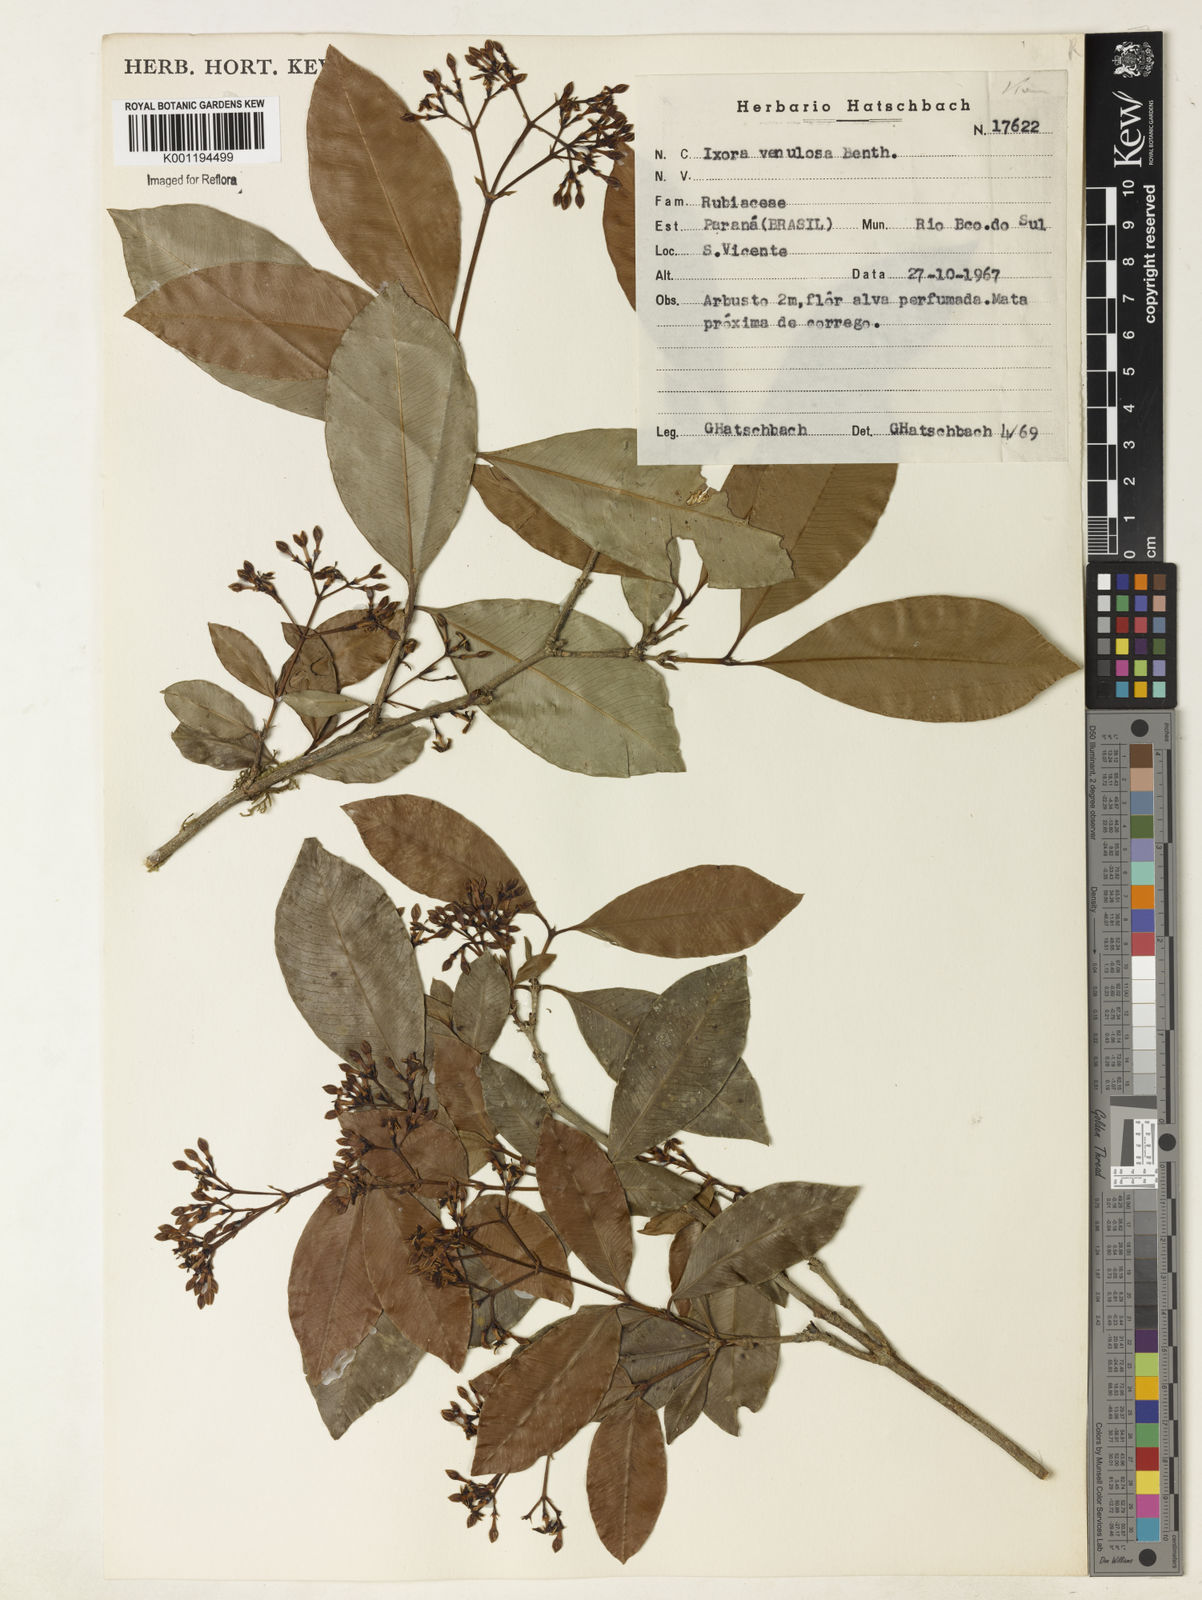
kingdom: Plantae
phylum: Tracheophyta
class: Magnoliopsida
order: Gentianales
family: Rubiaceae
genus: Ixora
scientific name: Ixora venulosa
